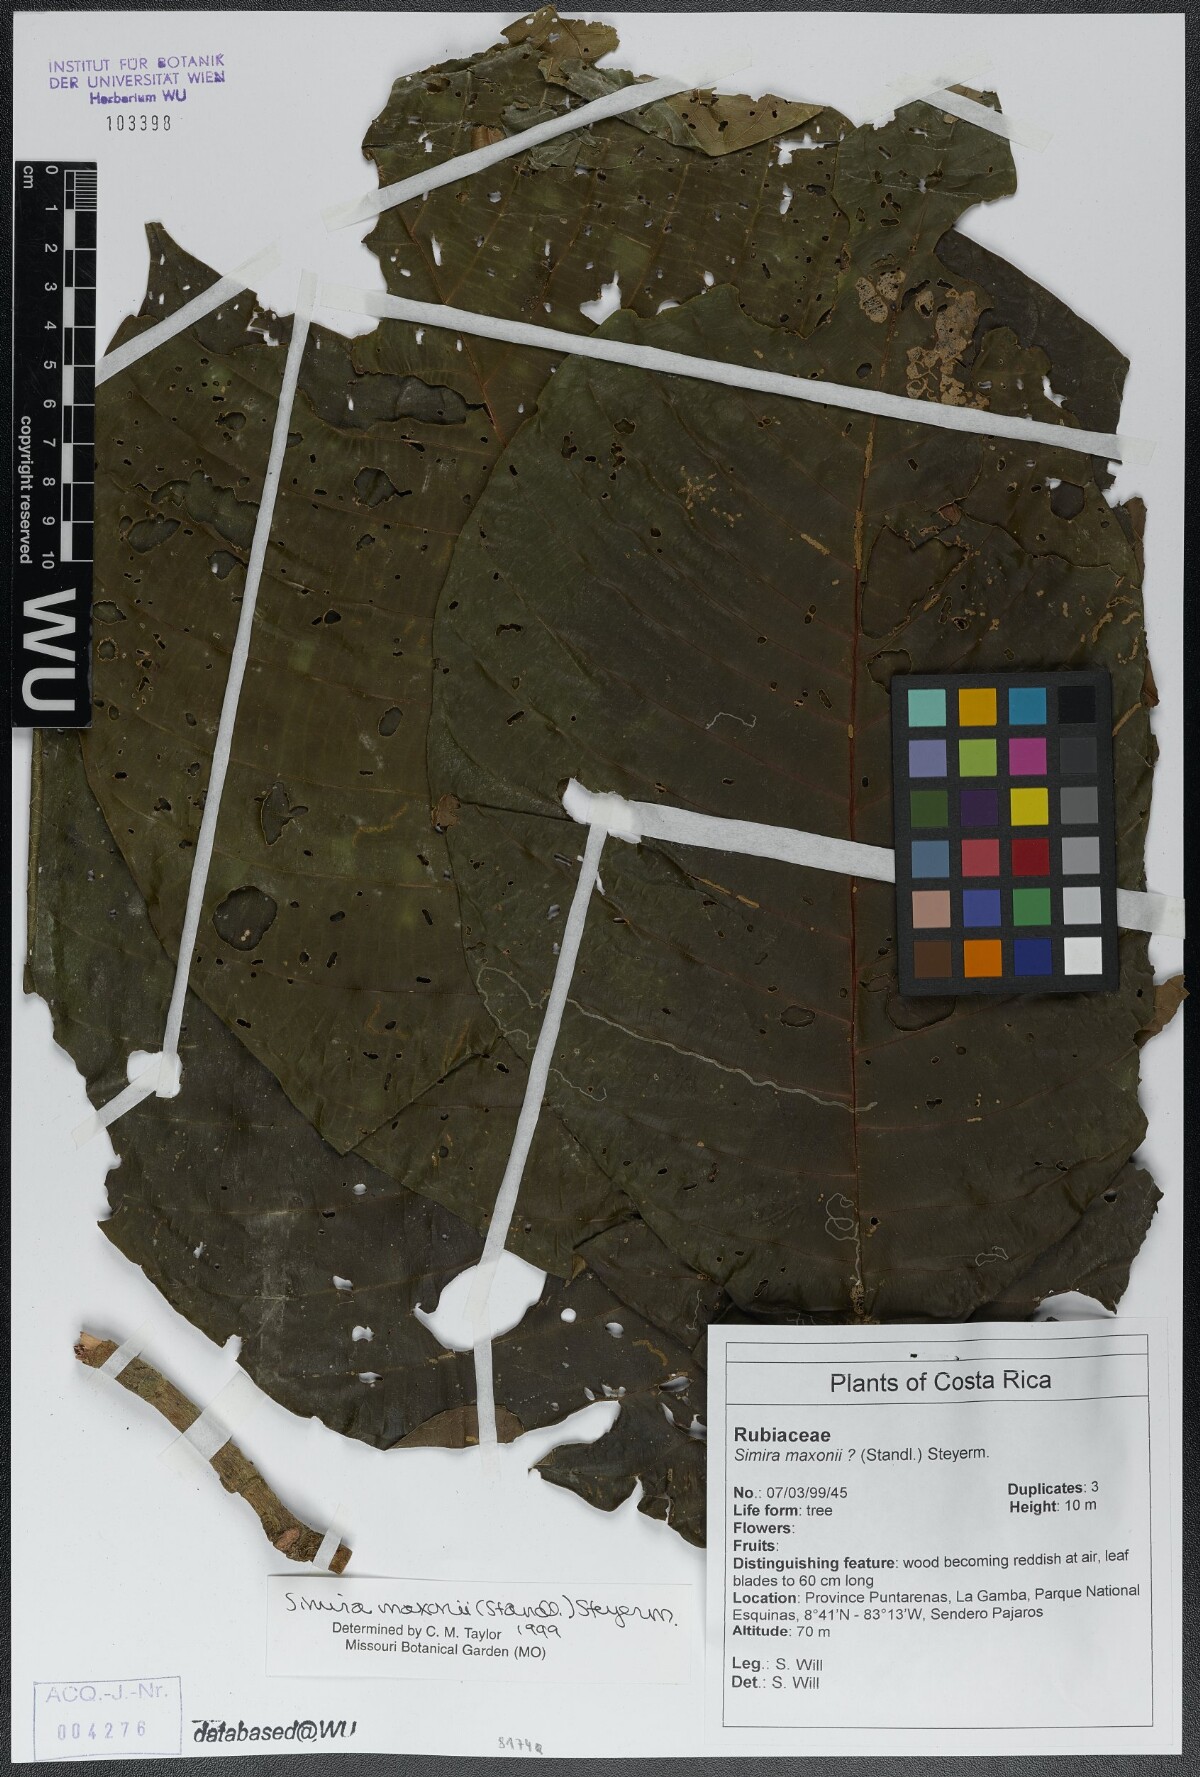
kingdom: Plantae
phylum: Tracheophyta
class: Magnoliopsida
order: Gentianales
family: Rubiaceae
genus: Simira
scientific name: Simira maxonii
